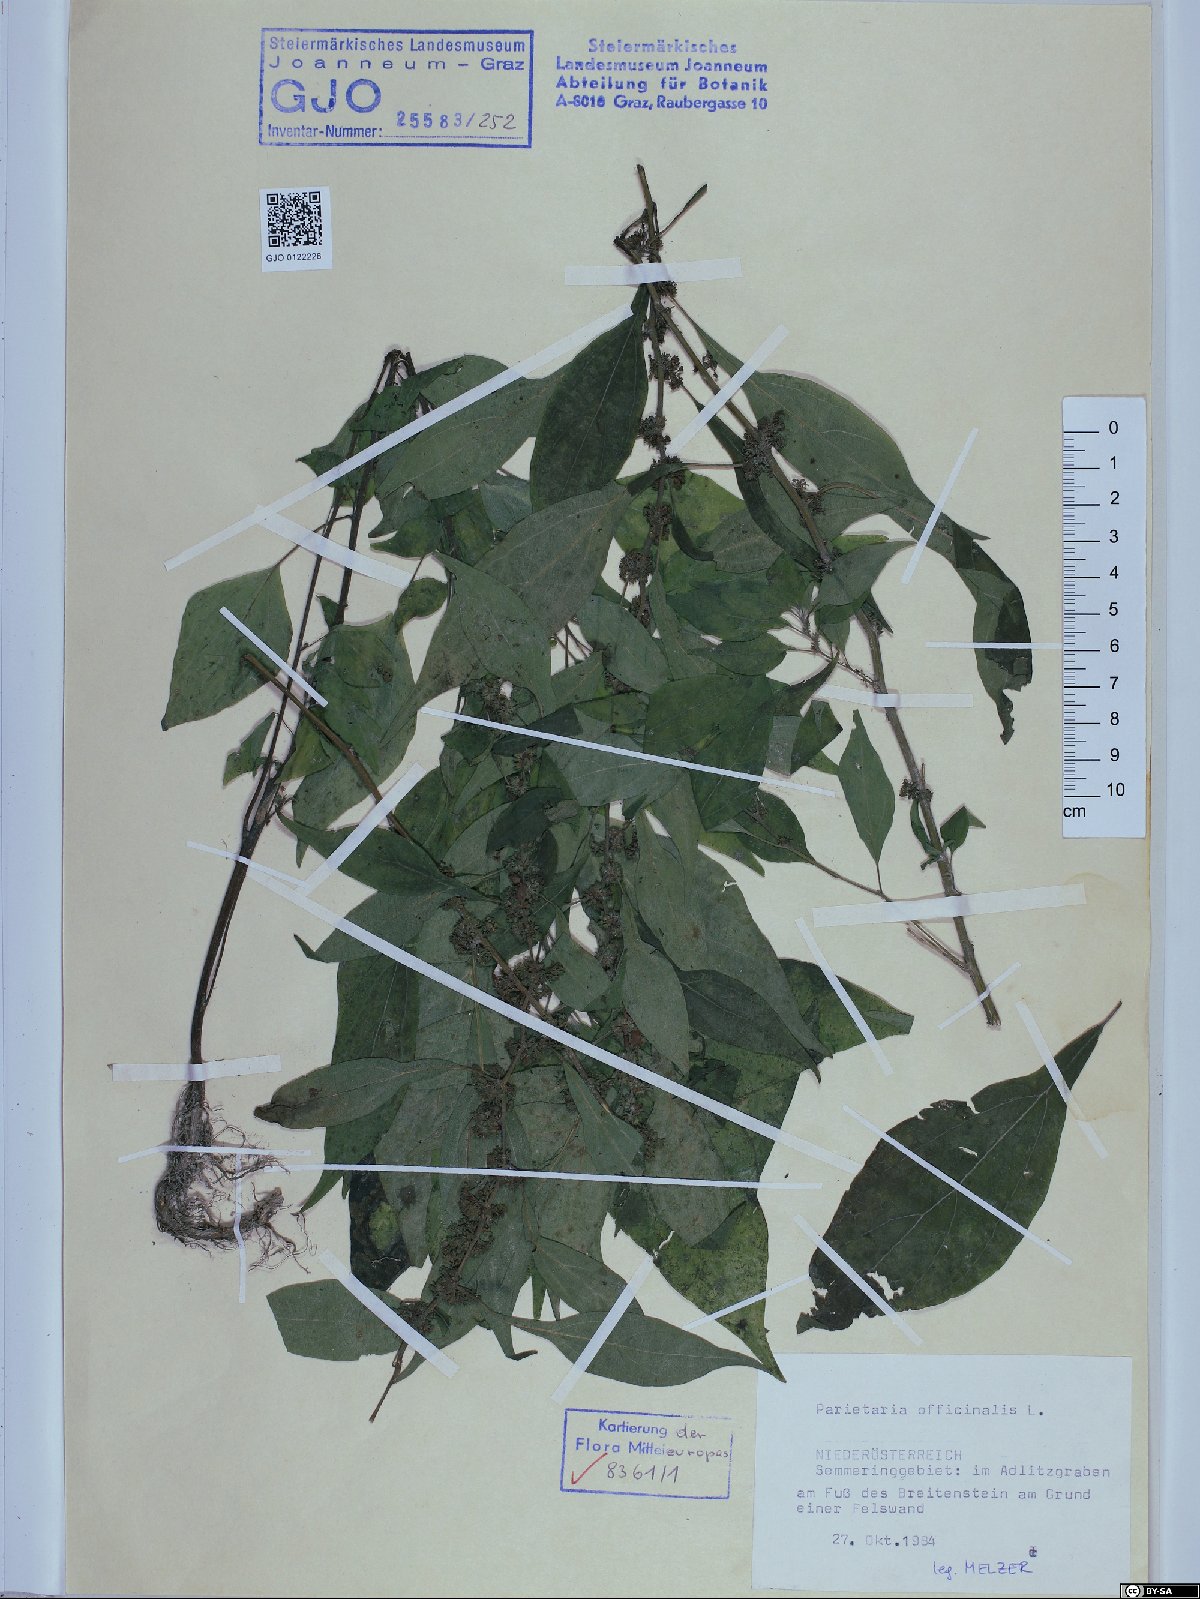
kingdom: Plantae
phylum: Tracheophyta
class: Magnoliopsida
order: Rosales
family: Urticaceae
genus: Parietaria
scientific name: Parietaria officinalis
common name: Eastern pellitory-of-the-wall
